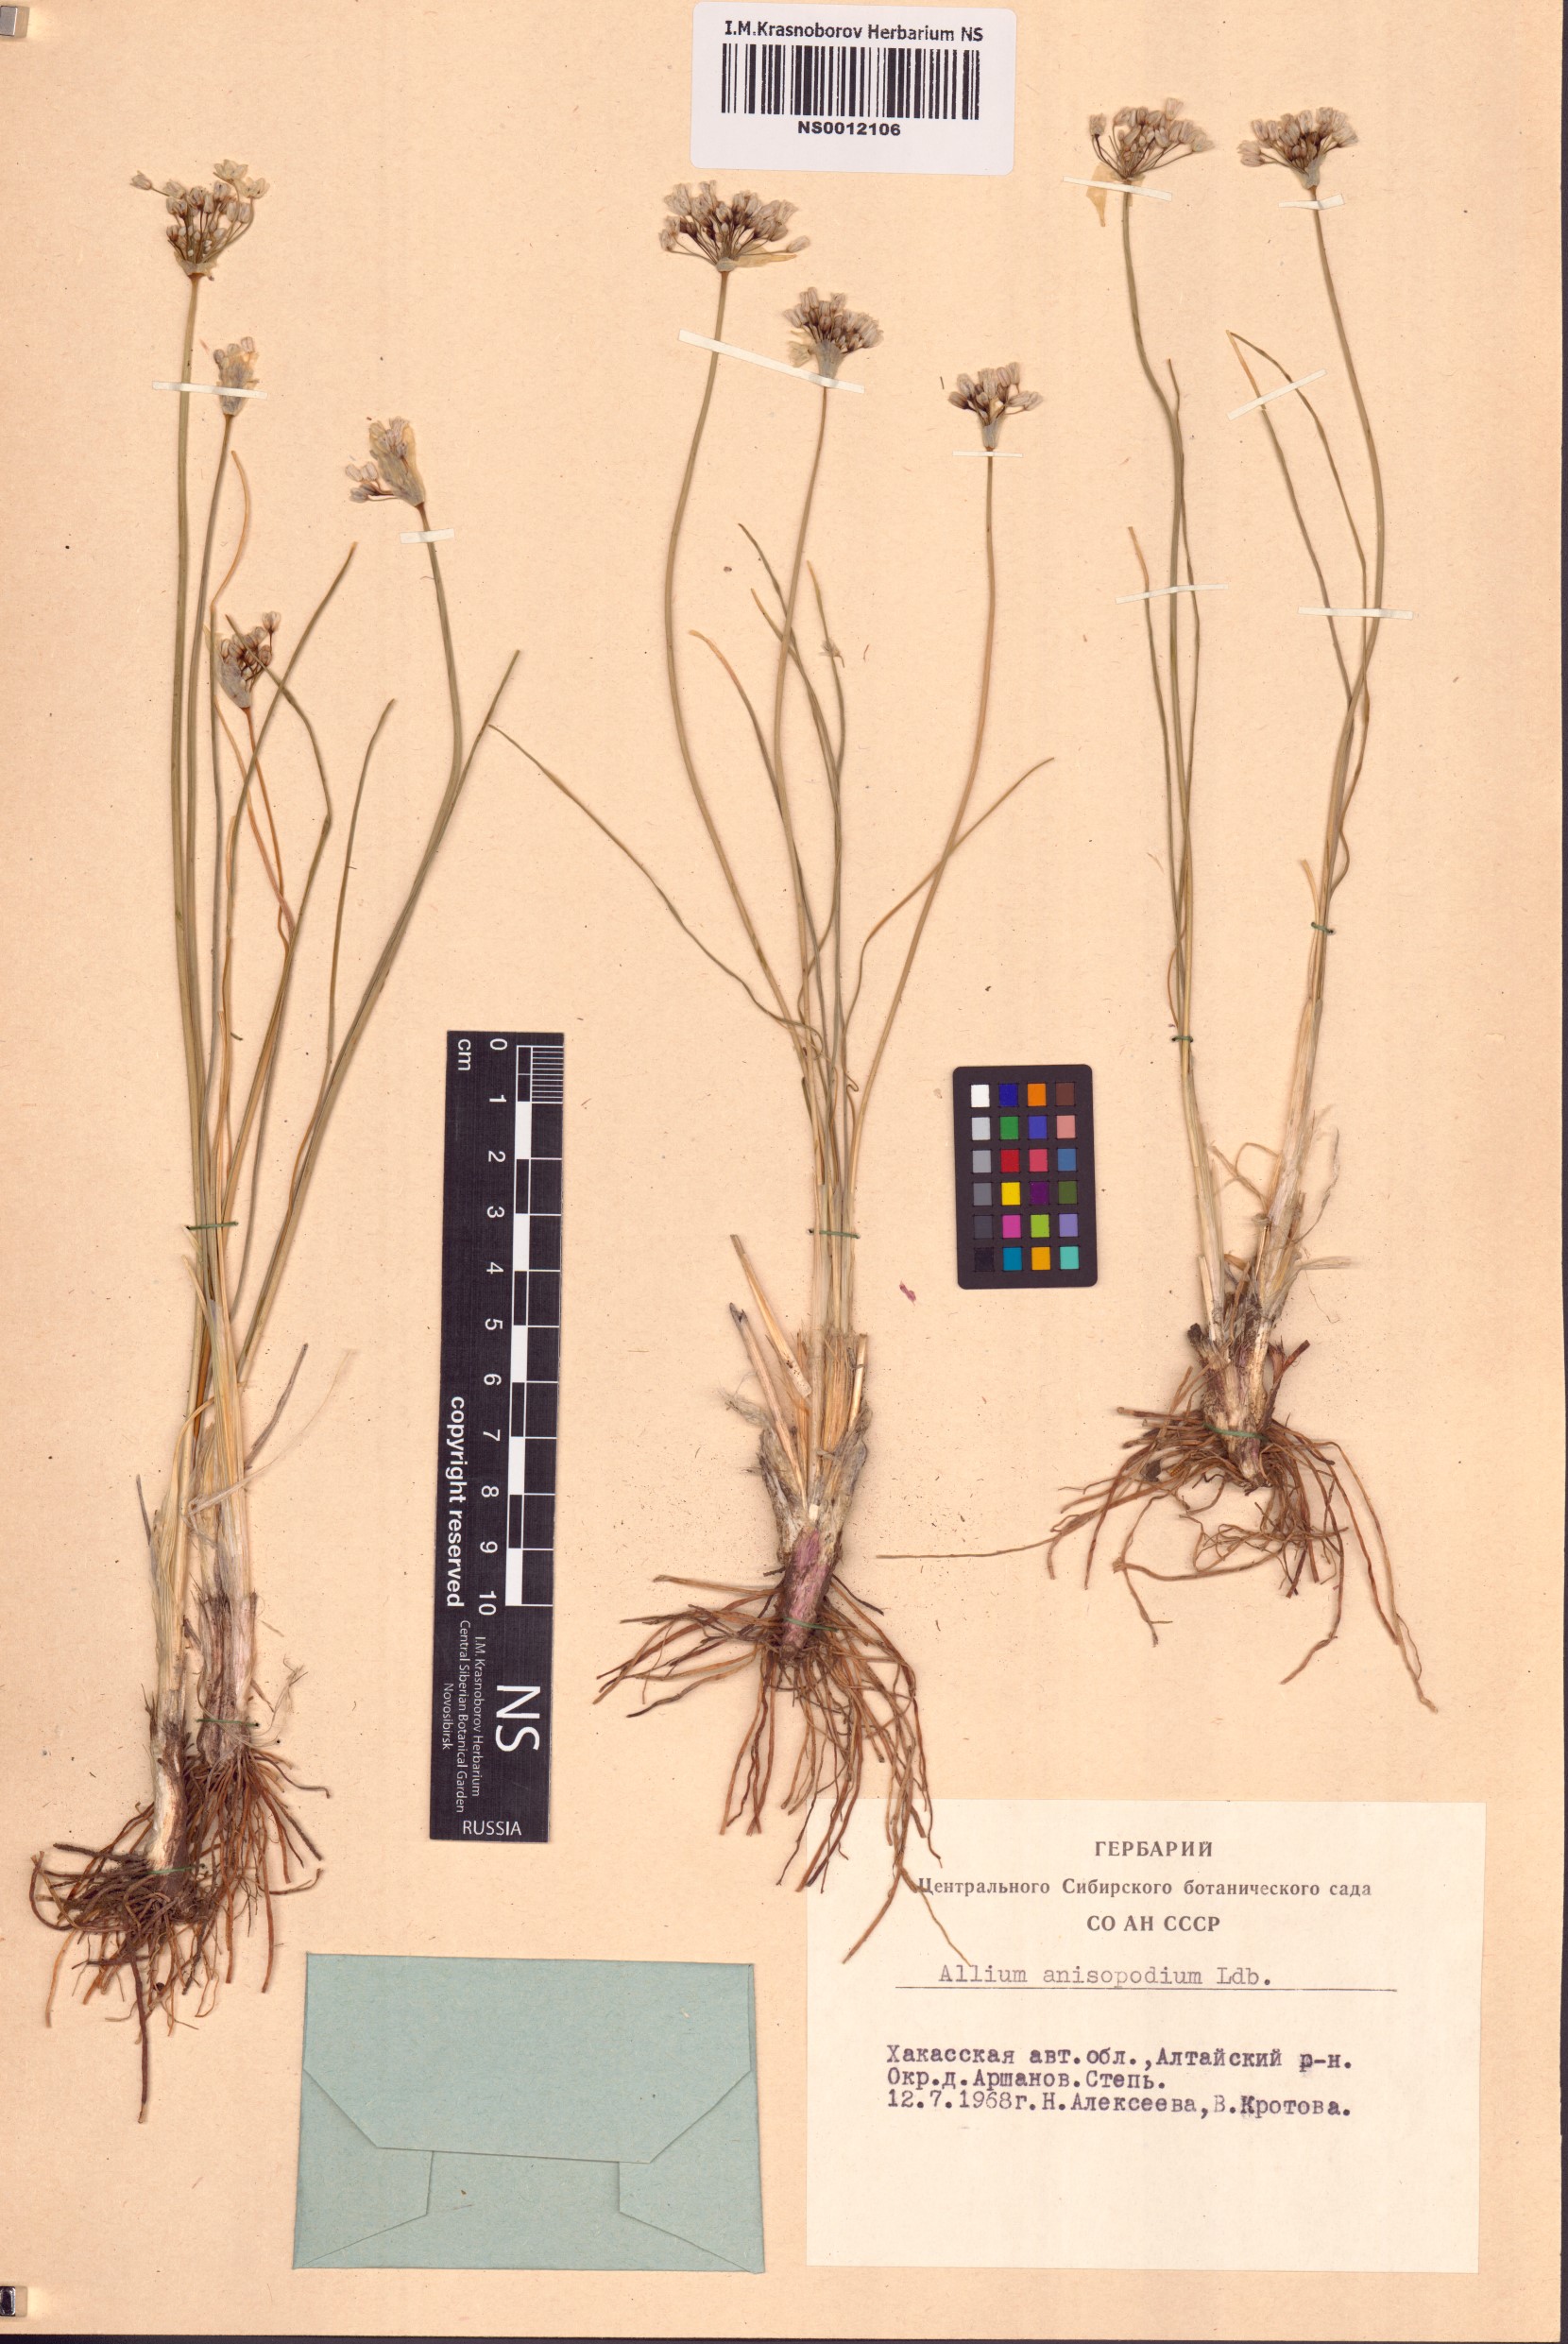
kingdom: Plantae
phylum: Tracheophyta
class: Liliopsida
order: Asparagales
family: Amaryllidaceae
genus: Allium
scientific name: Allium anisopodium
